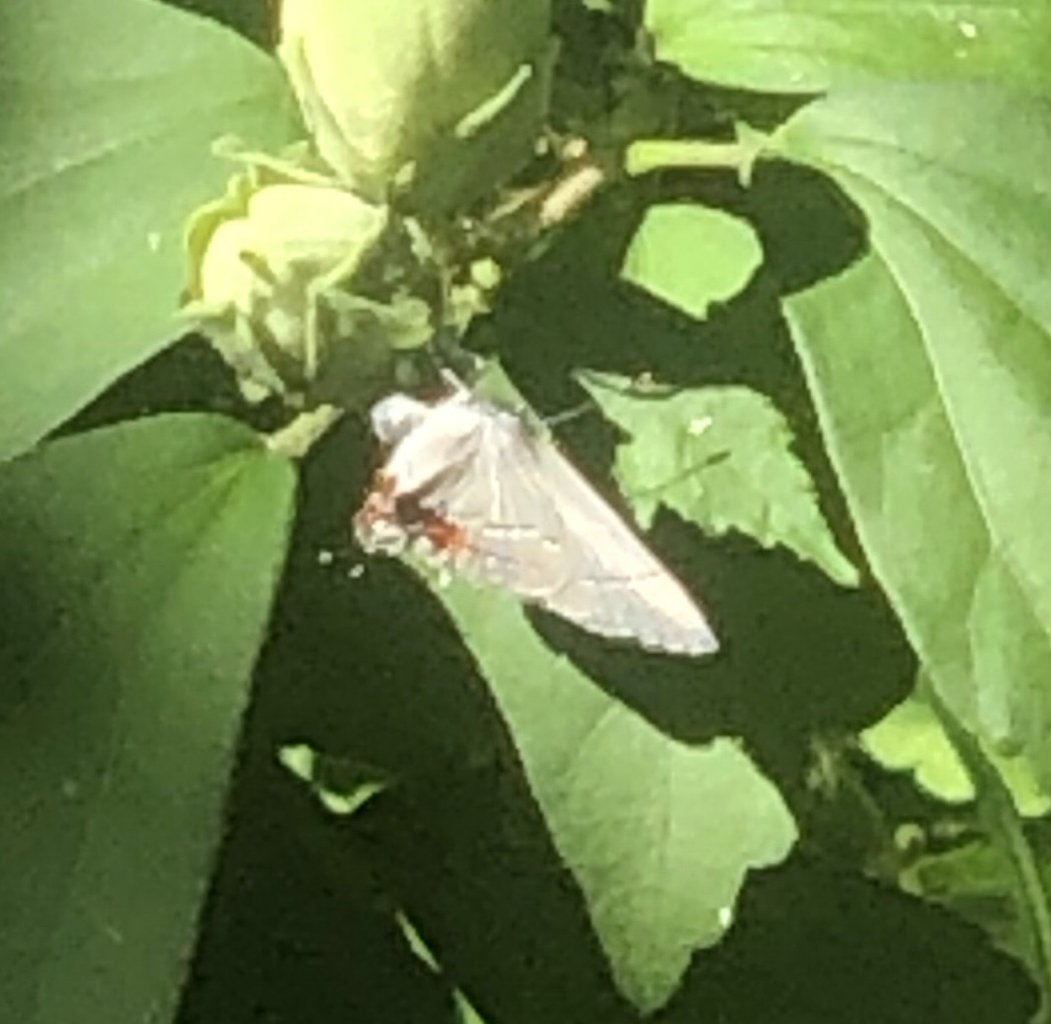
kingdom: Animalia
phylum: Arthropoda
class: Insecta
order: Lepidoptera
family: Lycaenidae
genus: Strymon
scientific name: Strymon melinus
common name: Gray Hairstreak
